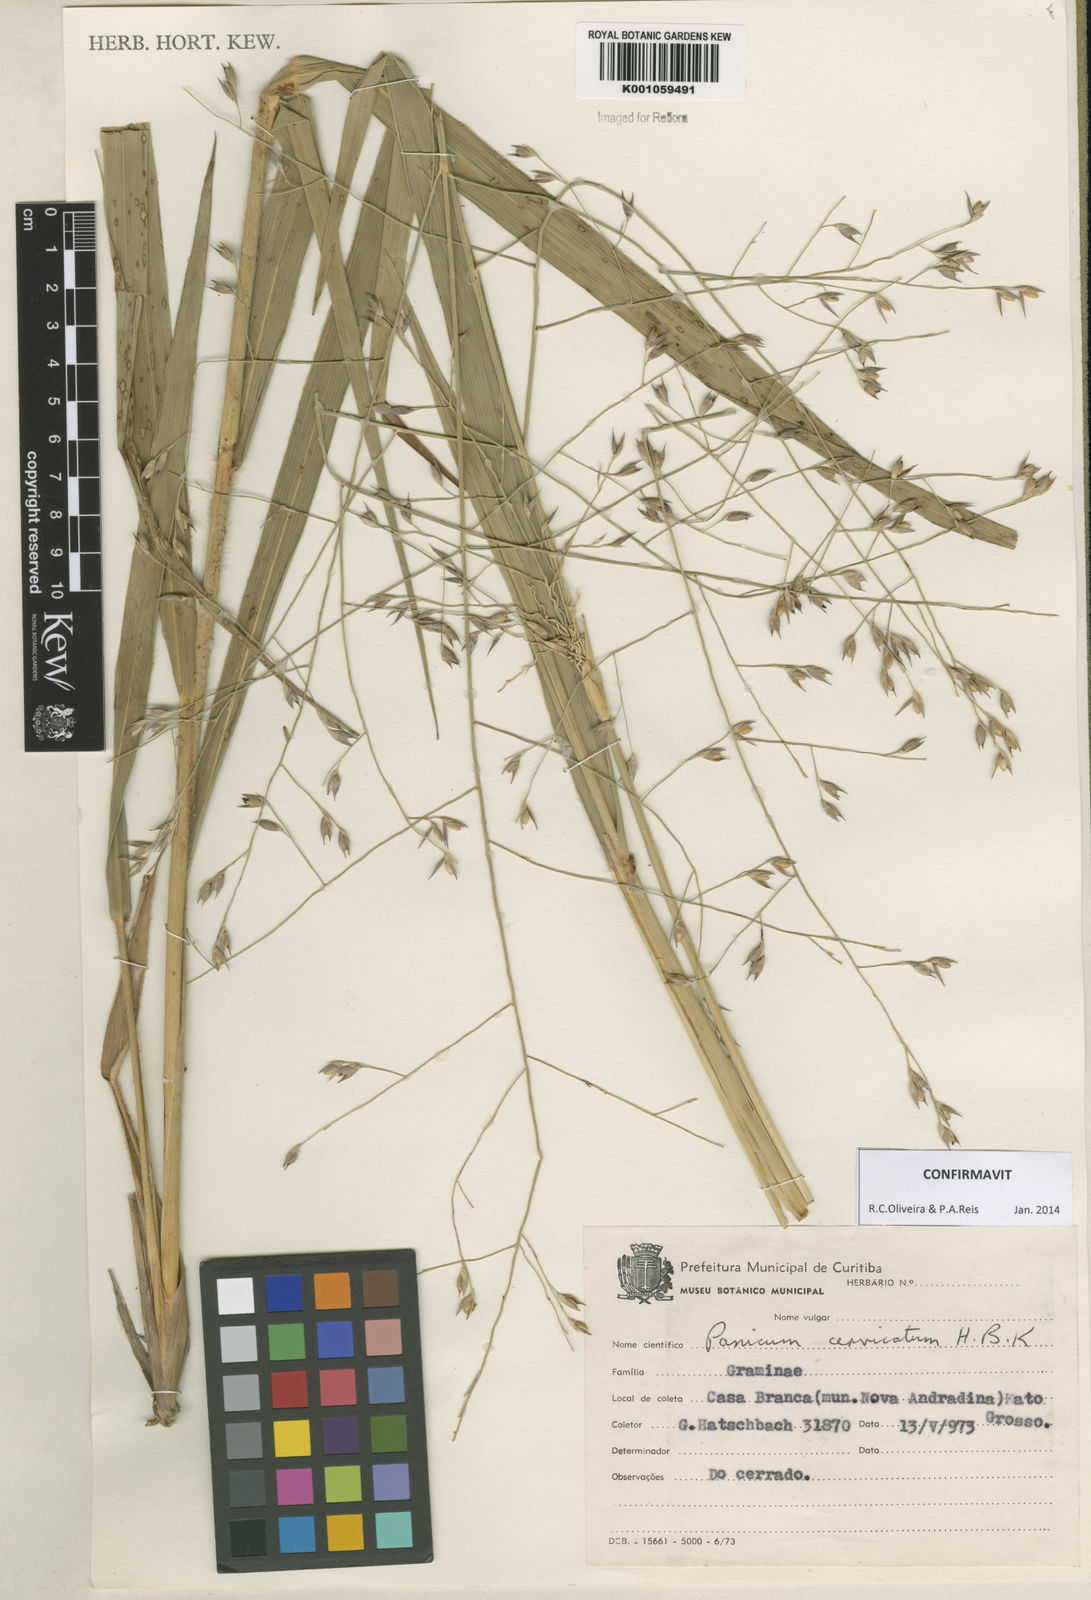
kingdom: Plantae
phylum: Tracheophyta
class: Liliopsida
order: Poales
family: Poaceae
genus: Panicum
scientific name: Panicum cervicatum
